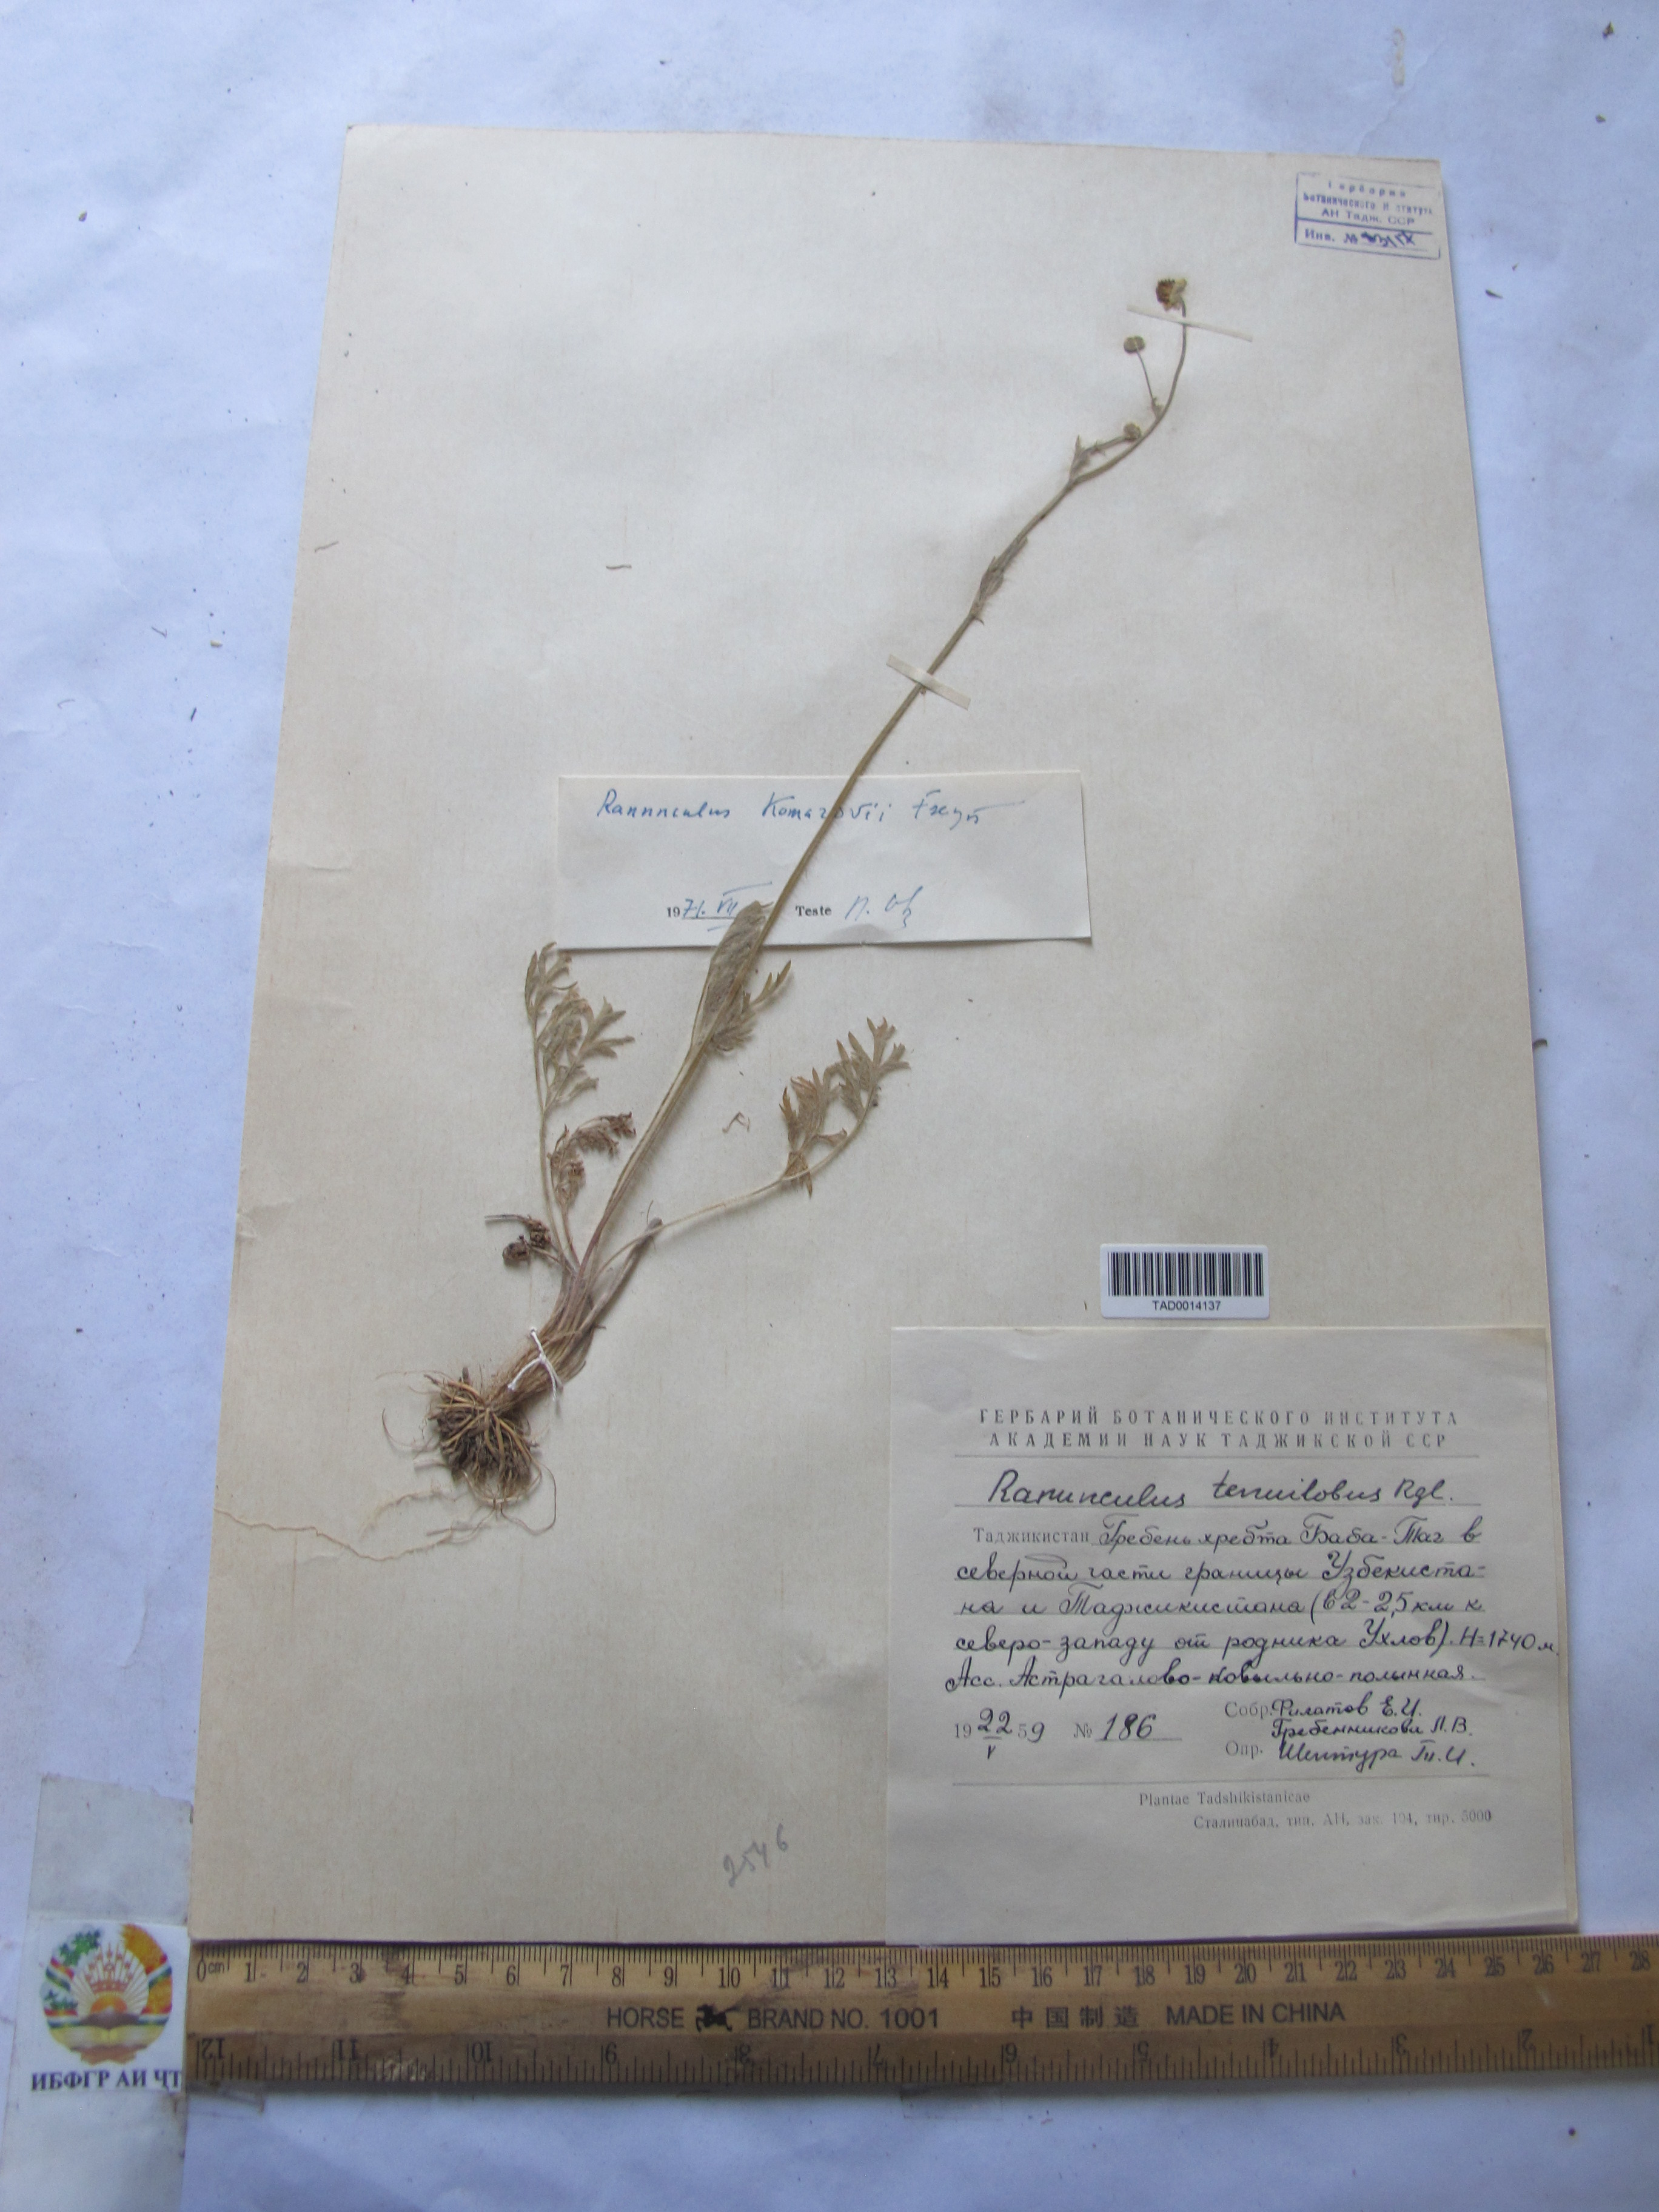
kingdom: Plantae
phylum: Tracheophyta
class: Magnoliopsida
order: Ranunculales
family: Ranunculaceae
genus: Ranunculus
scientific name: Ranunculus komarovii
